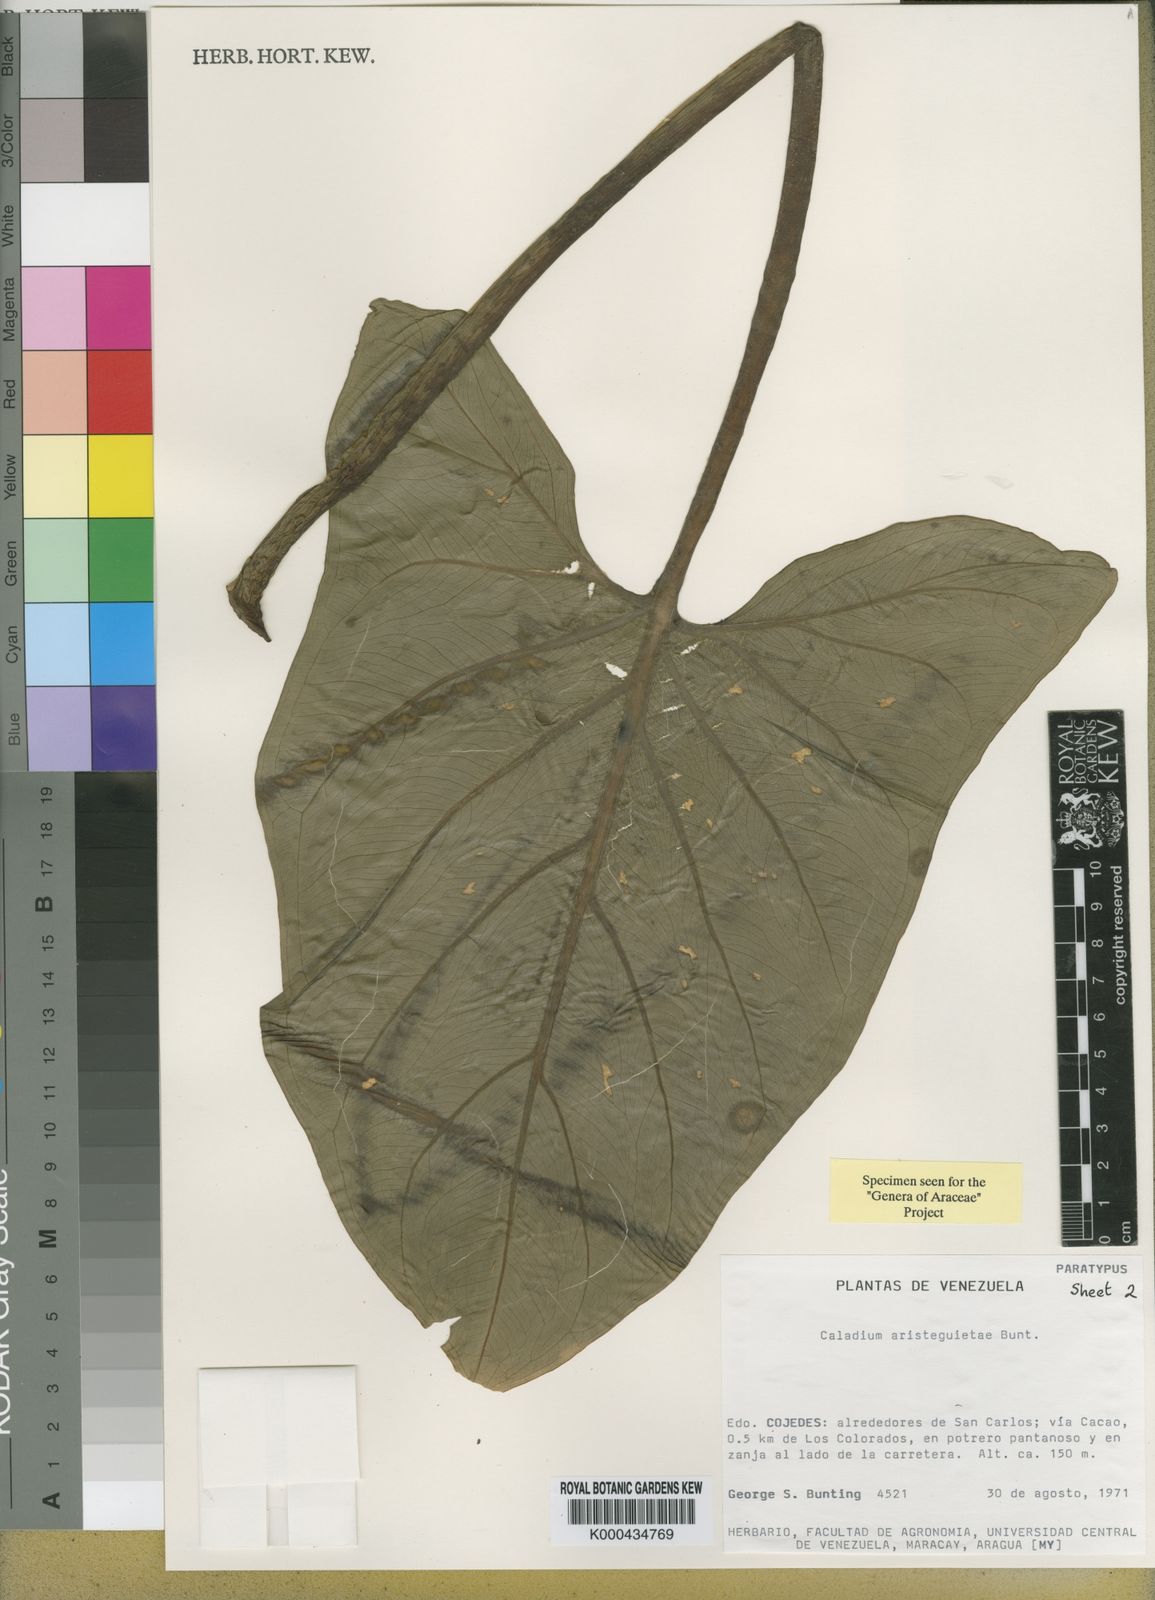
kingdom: Plantae
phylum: Tracheophyta
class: Liliopsida
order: Alismatales
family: Araceae
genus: Xanthosoma
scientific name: Xanthosoma aristeguietae
